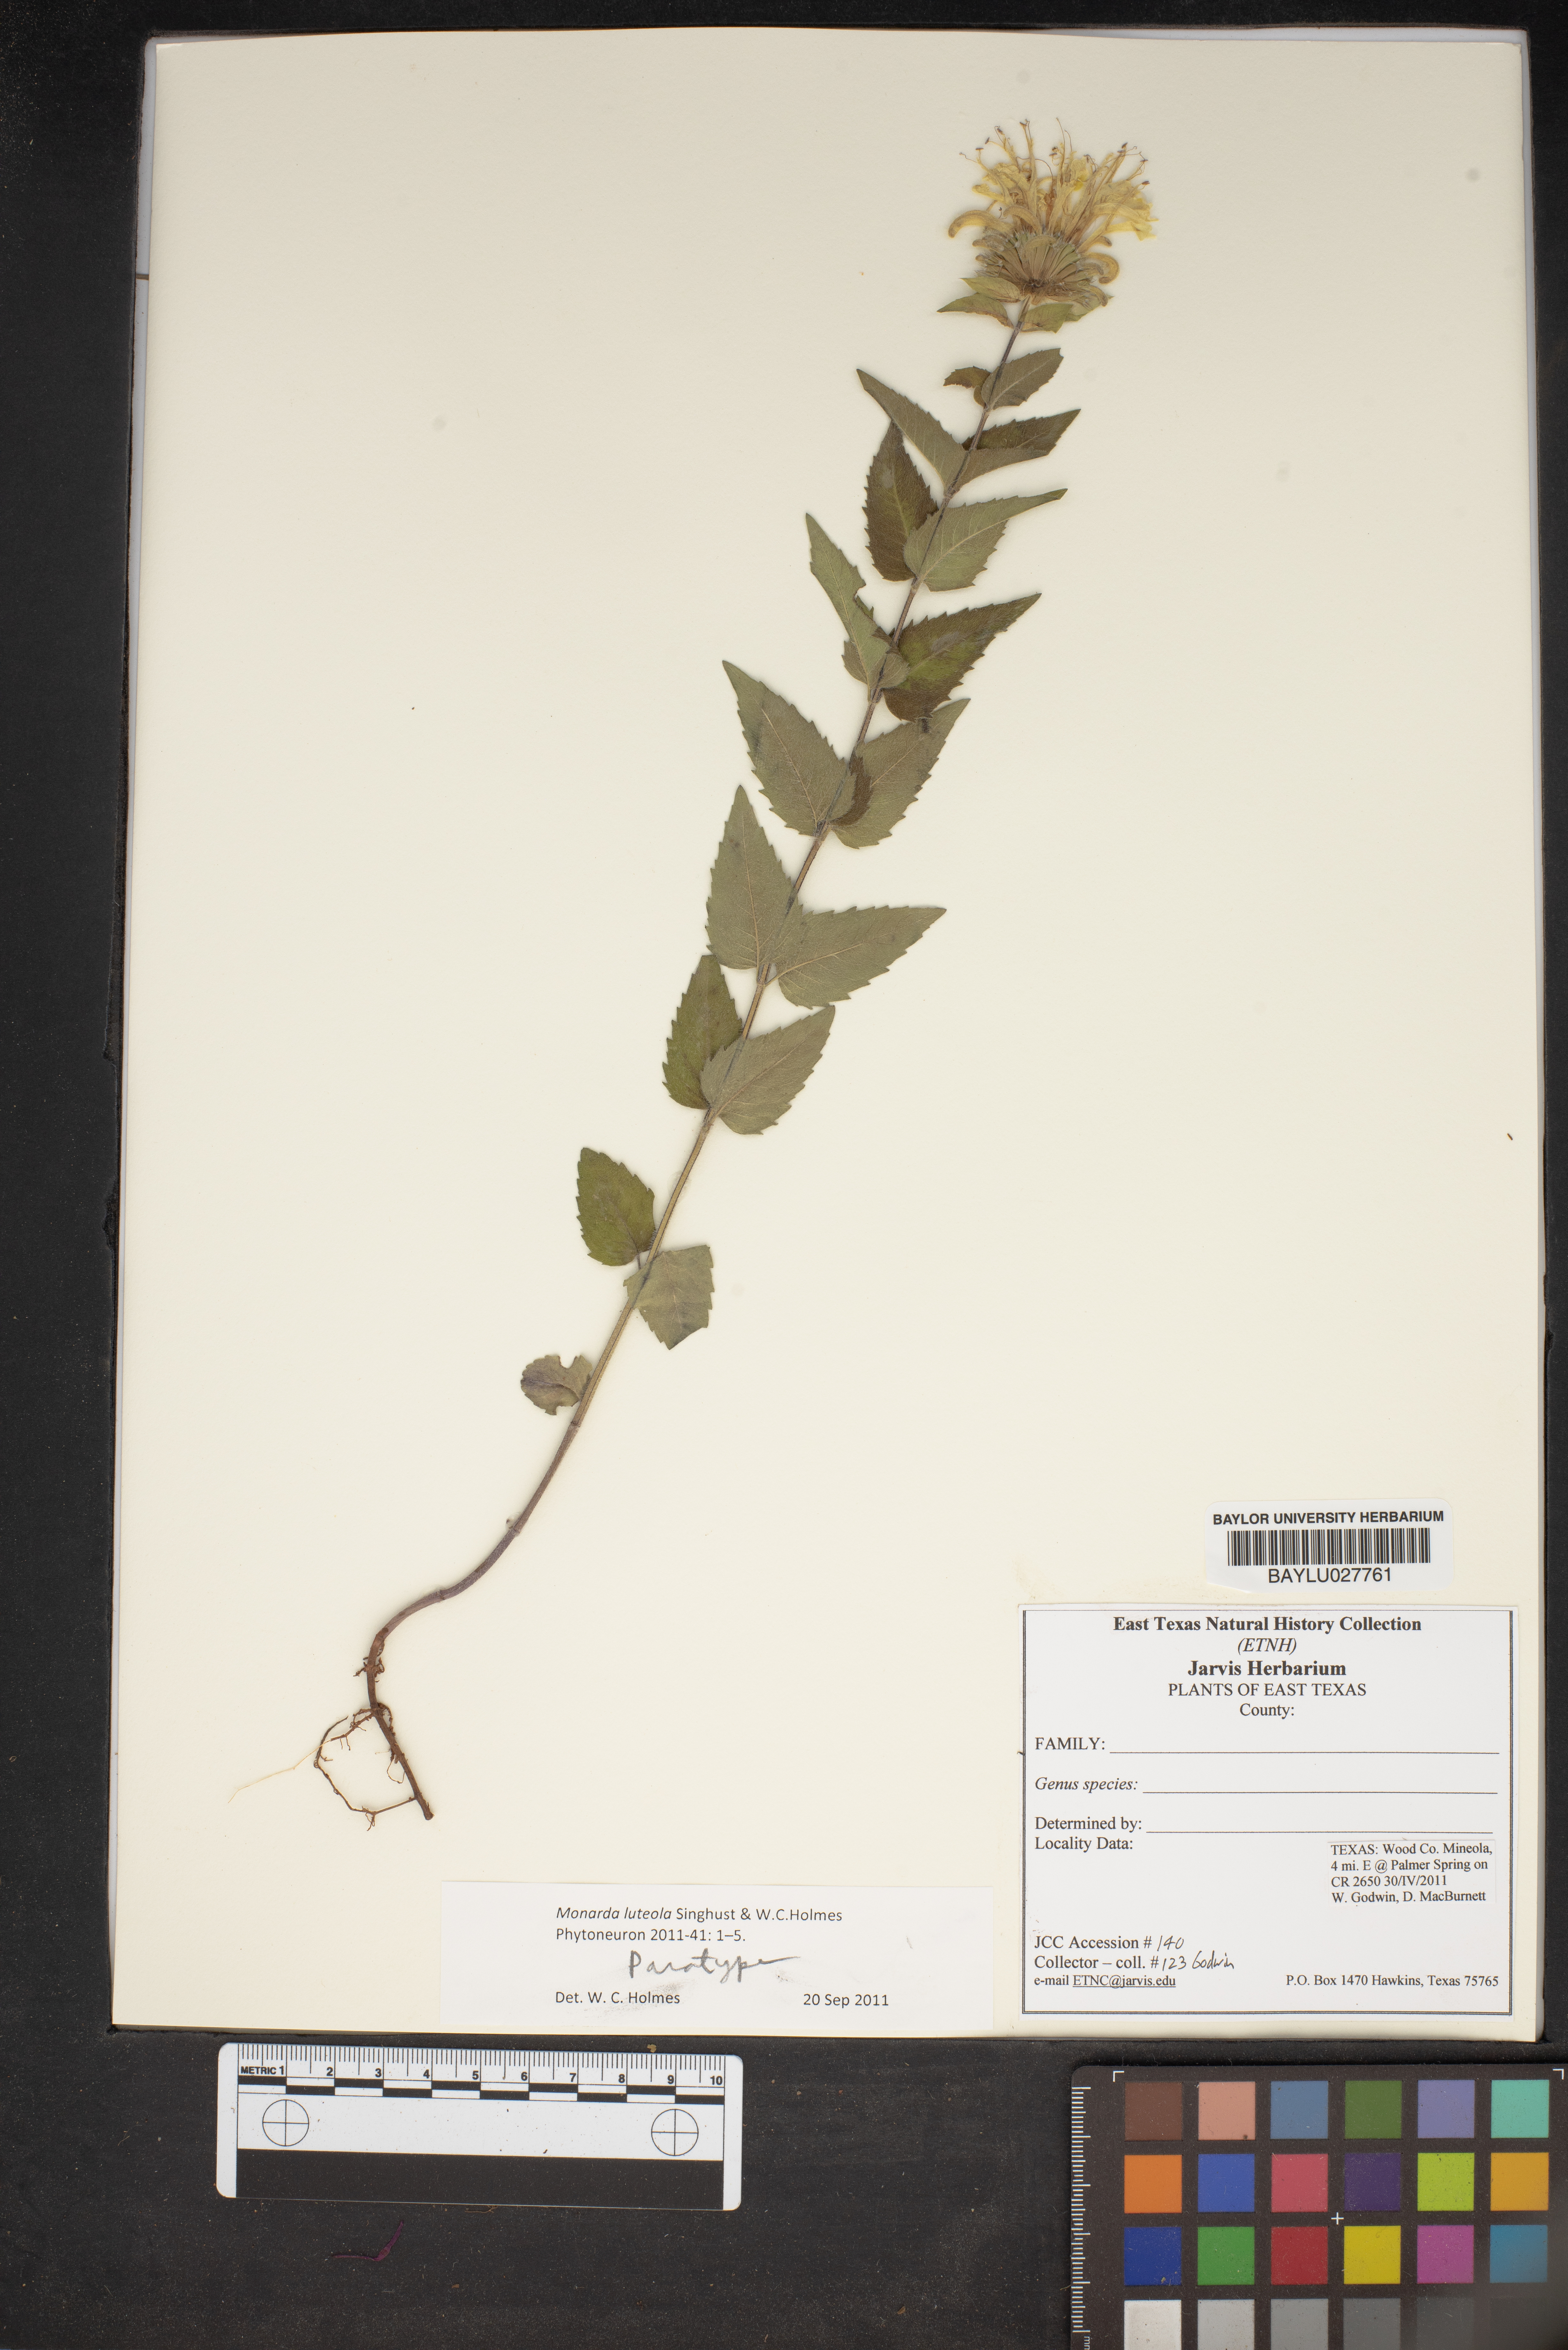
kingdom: Plantae
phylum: Tracheophyta
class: Magnoliopsida
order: Lamiales
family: Lamiaceae
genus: Monarda
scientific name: Monarda luteola
